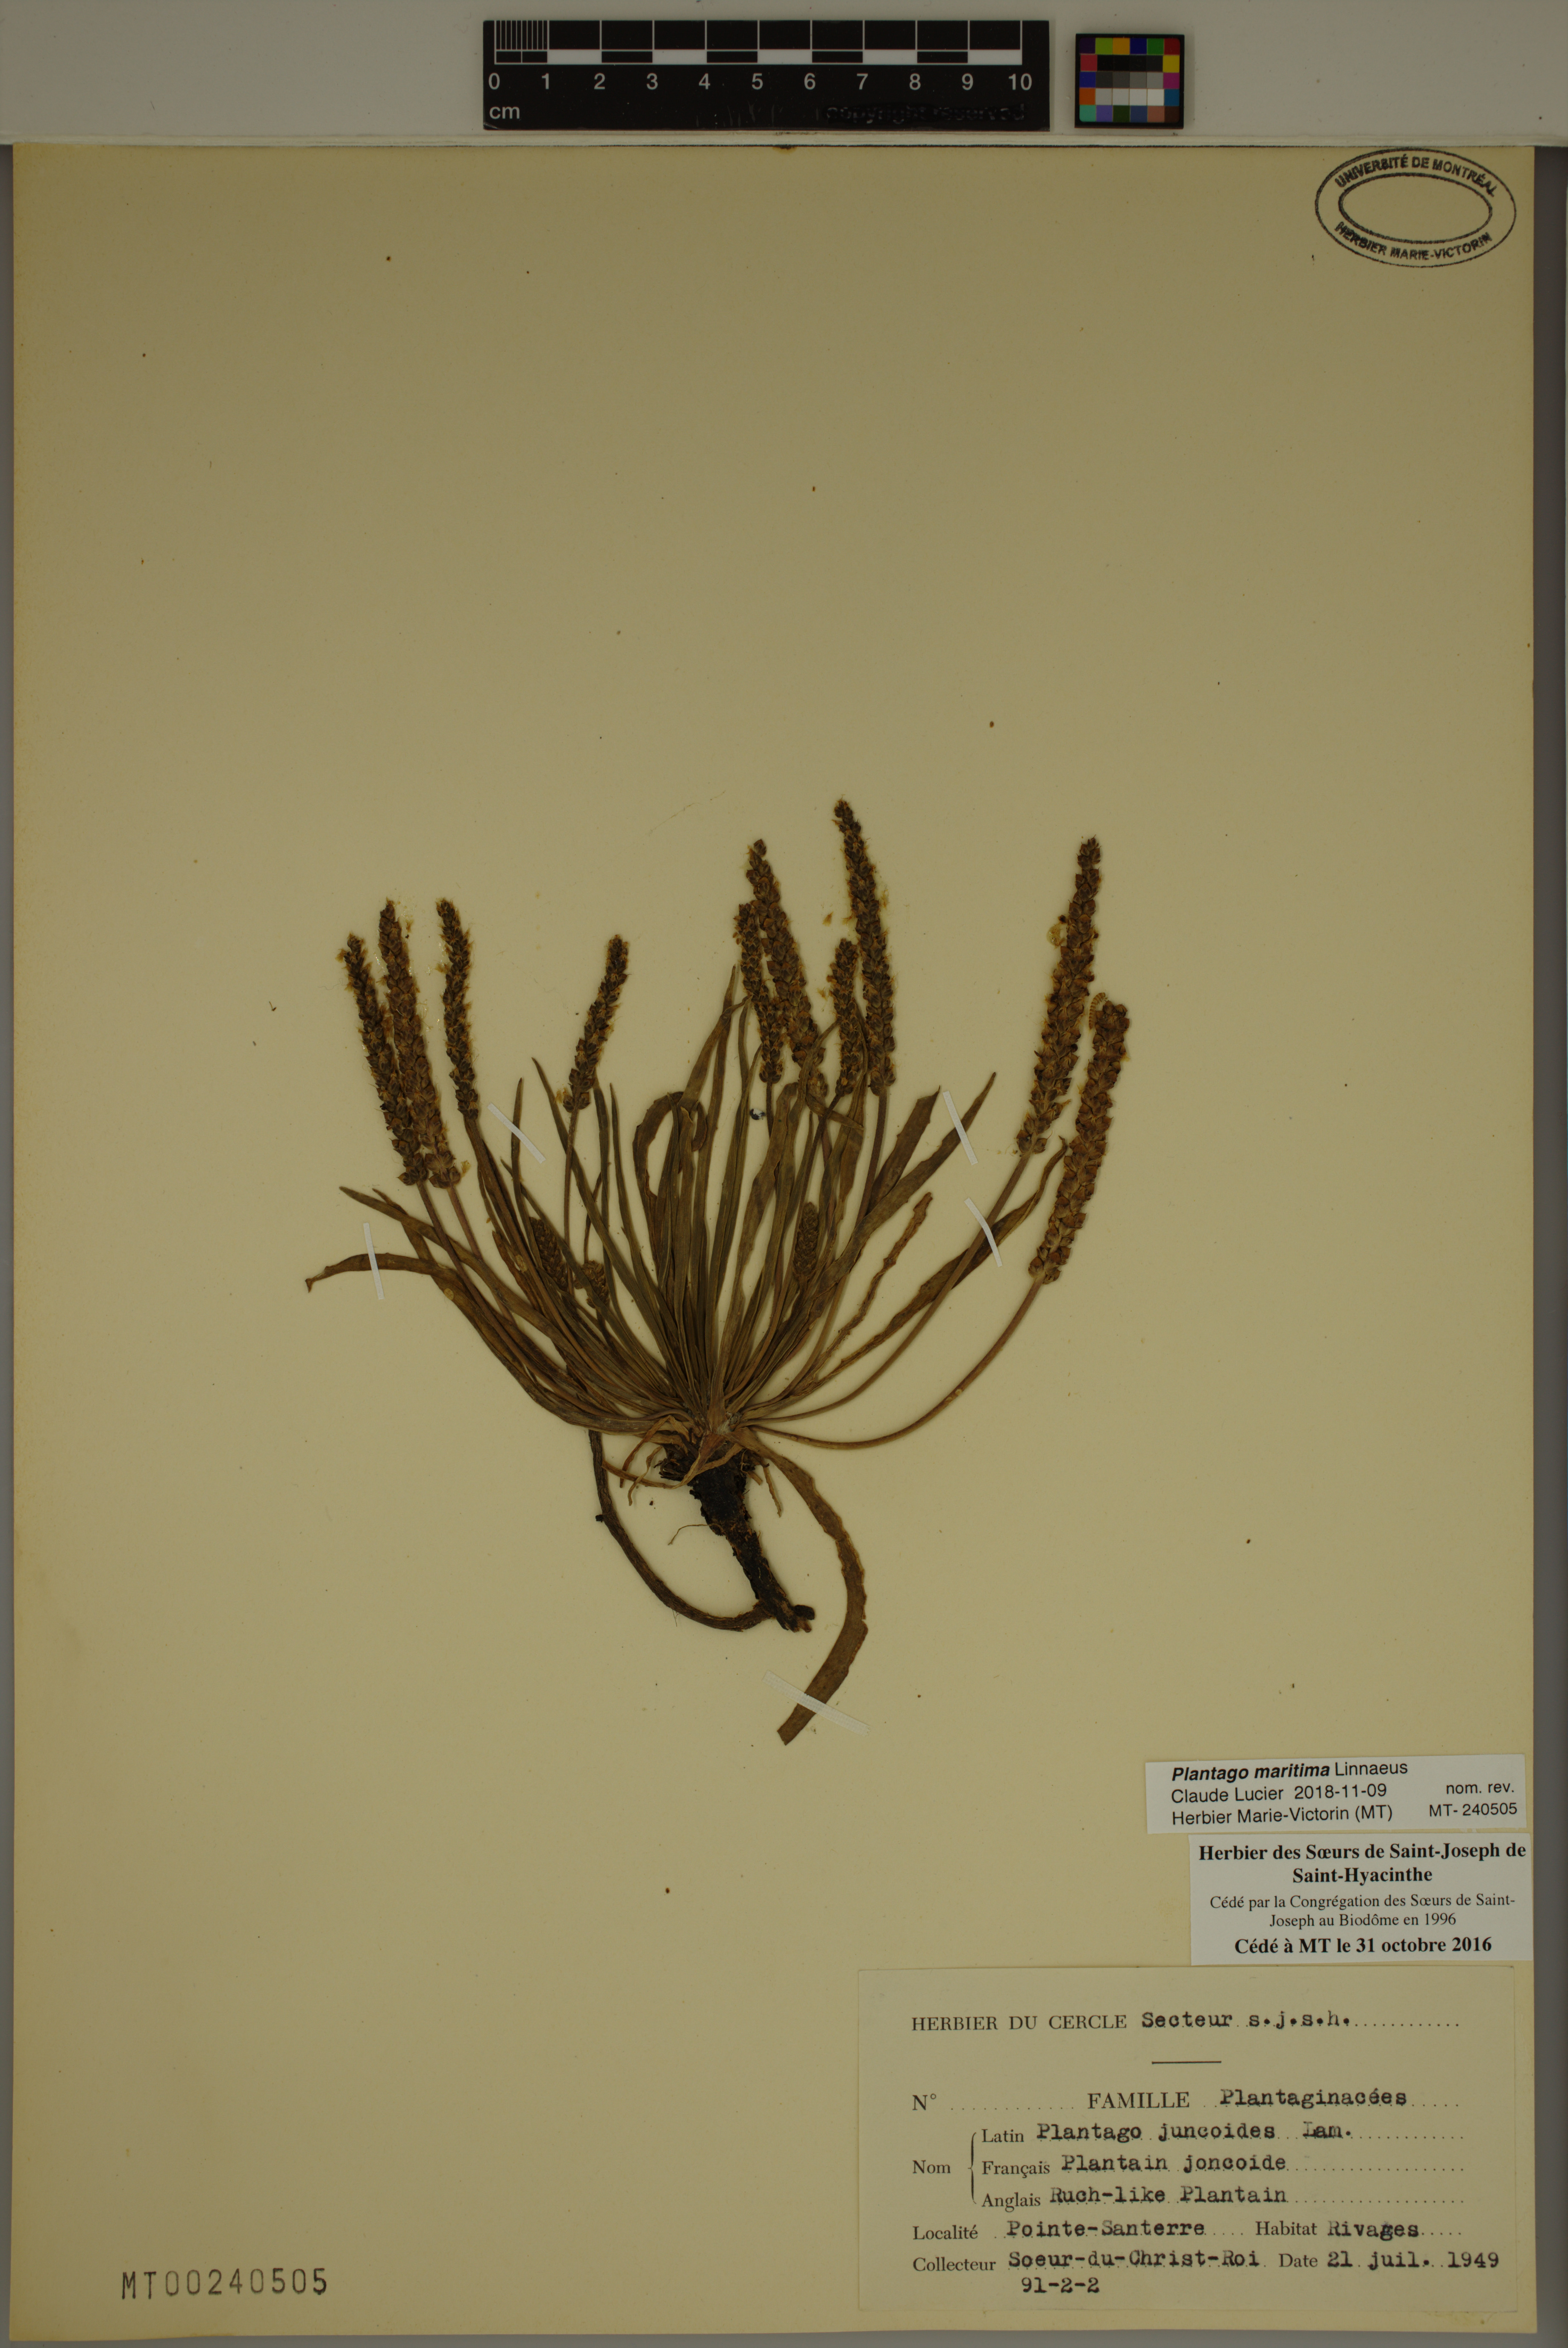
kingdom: Plantae
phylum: Tracheophyta
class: Magnoliopsida
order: Lamiales
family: Plantaginaceae
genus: Plantago
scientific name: Plantago maritima
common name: Sea plantain
